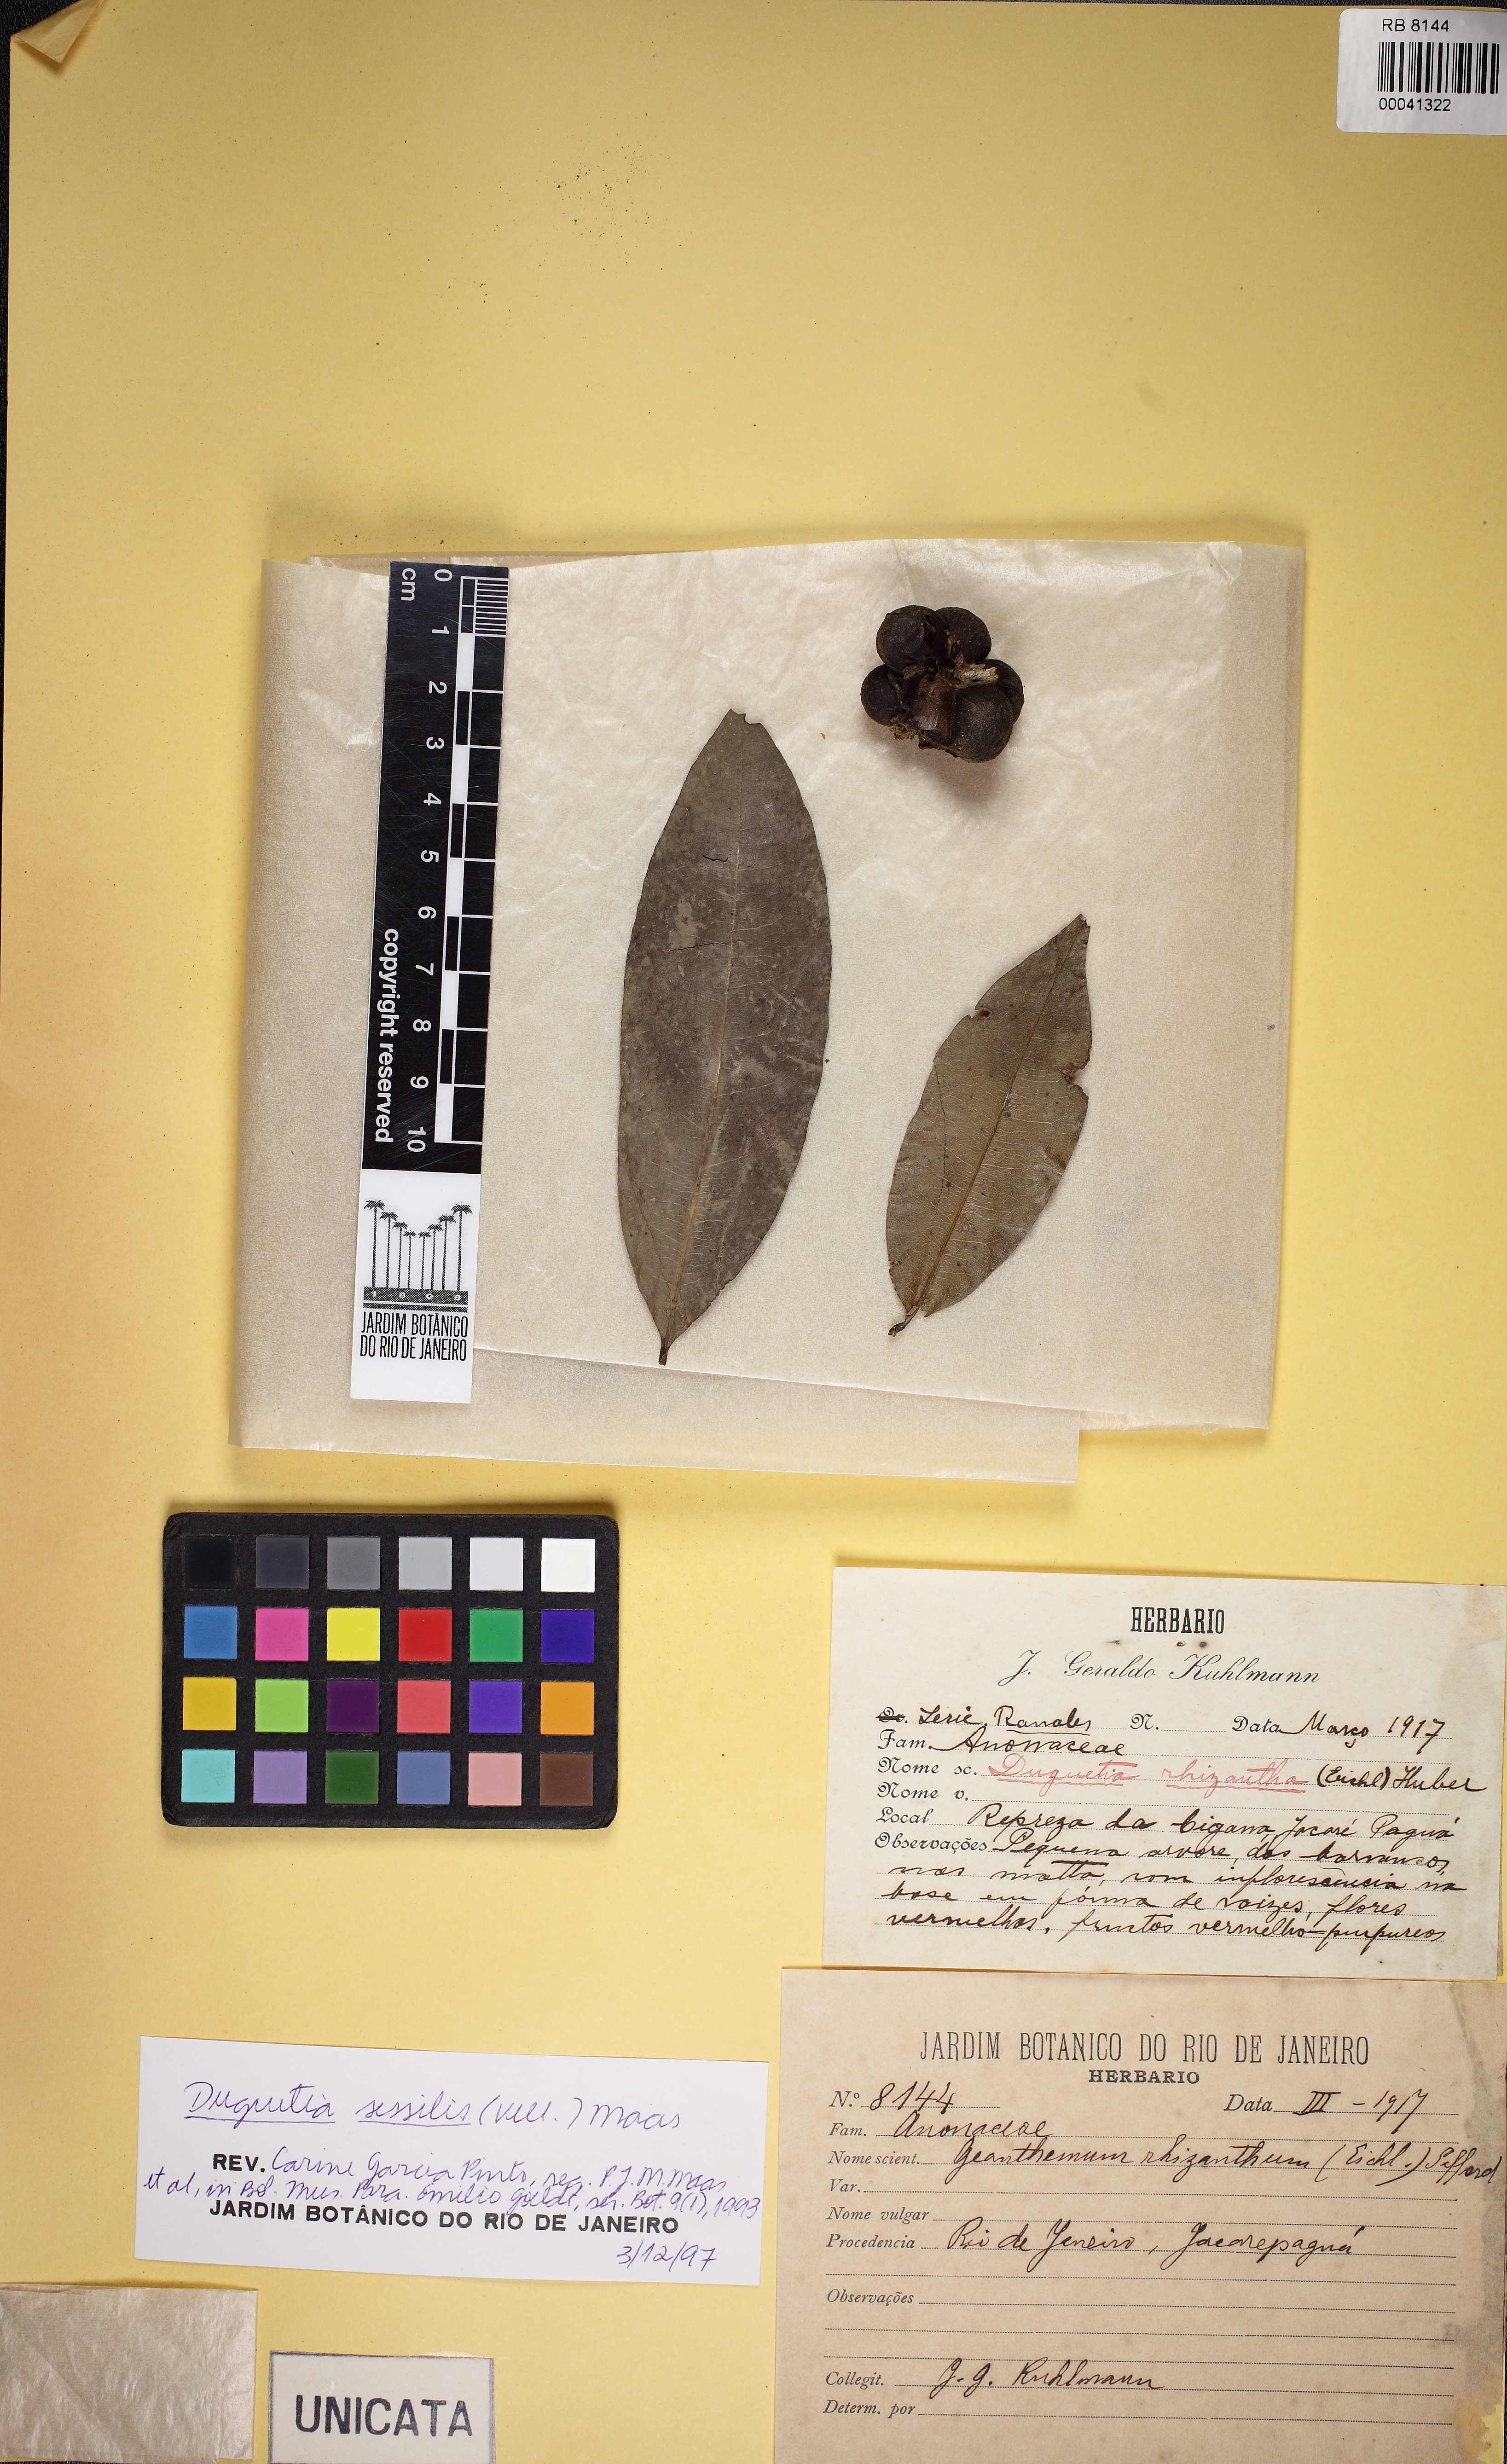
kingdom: Plantae
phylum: Tracheophyta
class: Magnoliopsida
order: Magnoliales
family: Annonaceae
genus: Duguetia
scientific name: Duguetia sessilis
